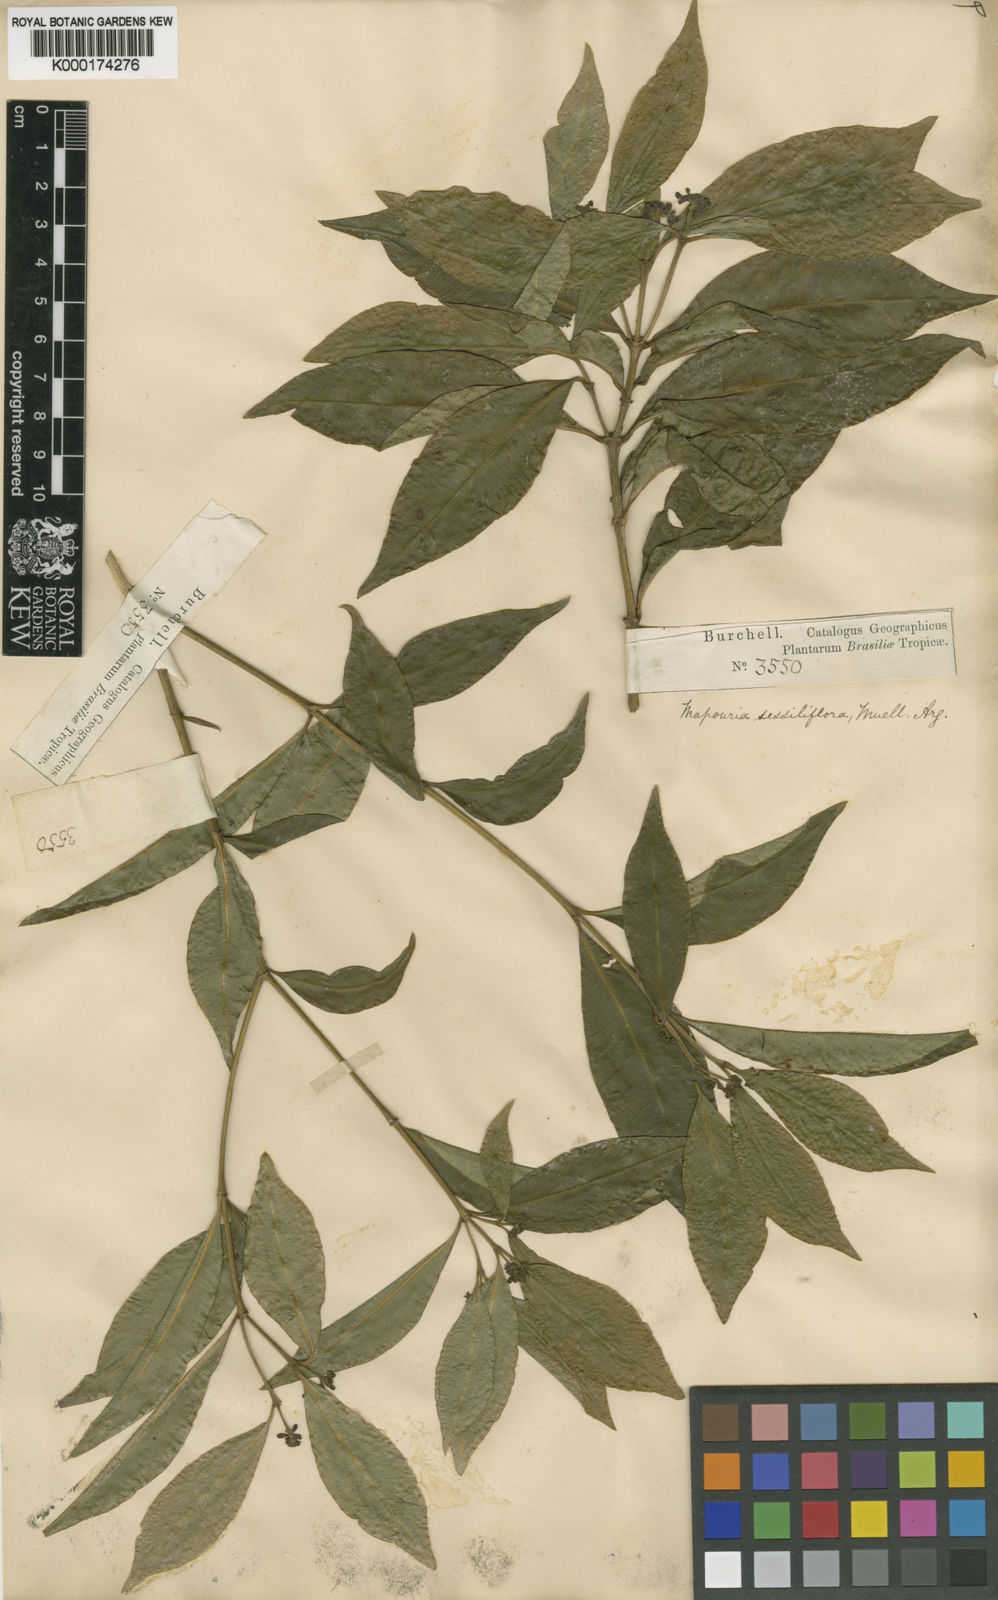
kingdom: Plantae
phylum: Tracheophyta
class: Magnoliopsida
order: Gentianales
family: Rubiaceae
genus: Eumachia
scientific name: Eumachia chaenotricha
